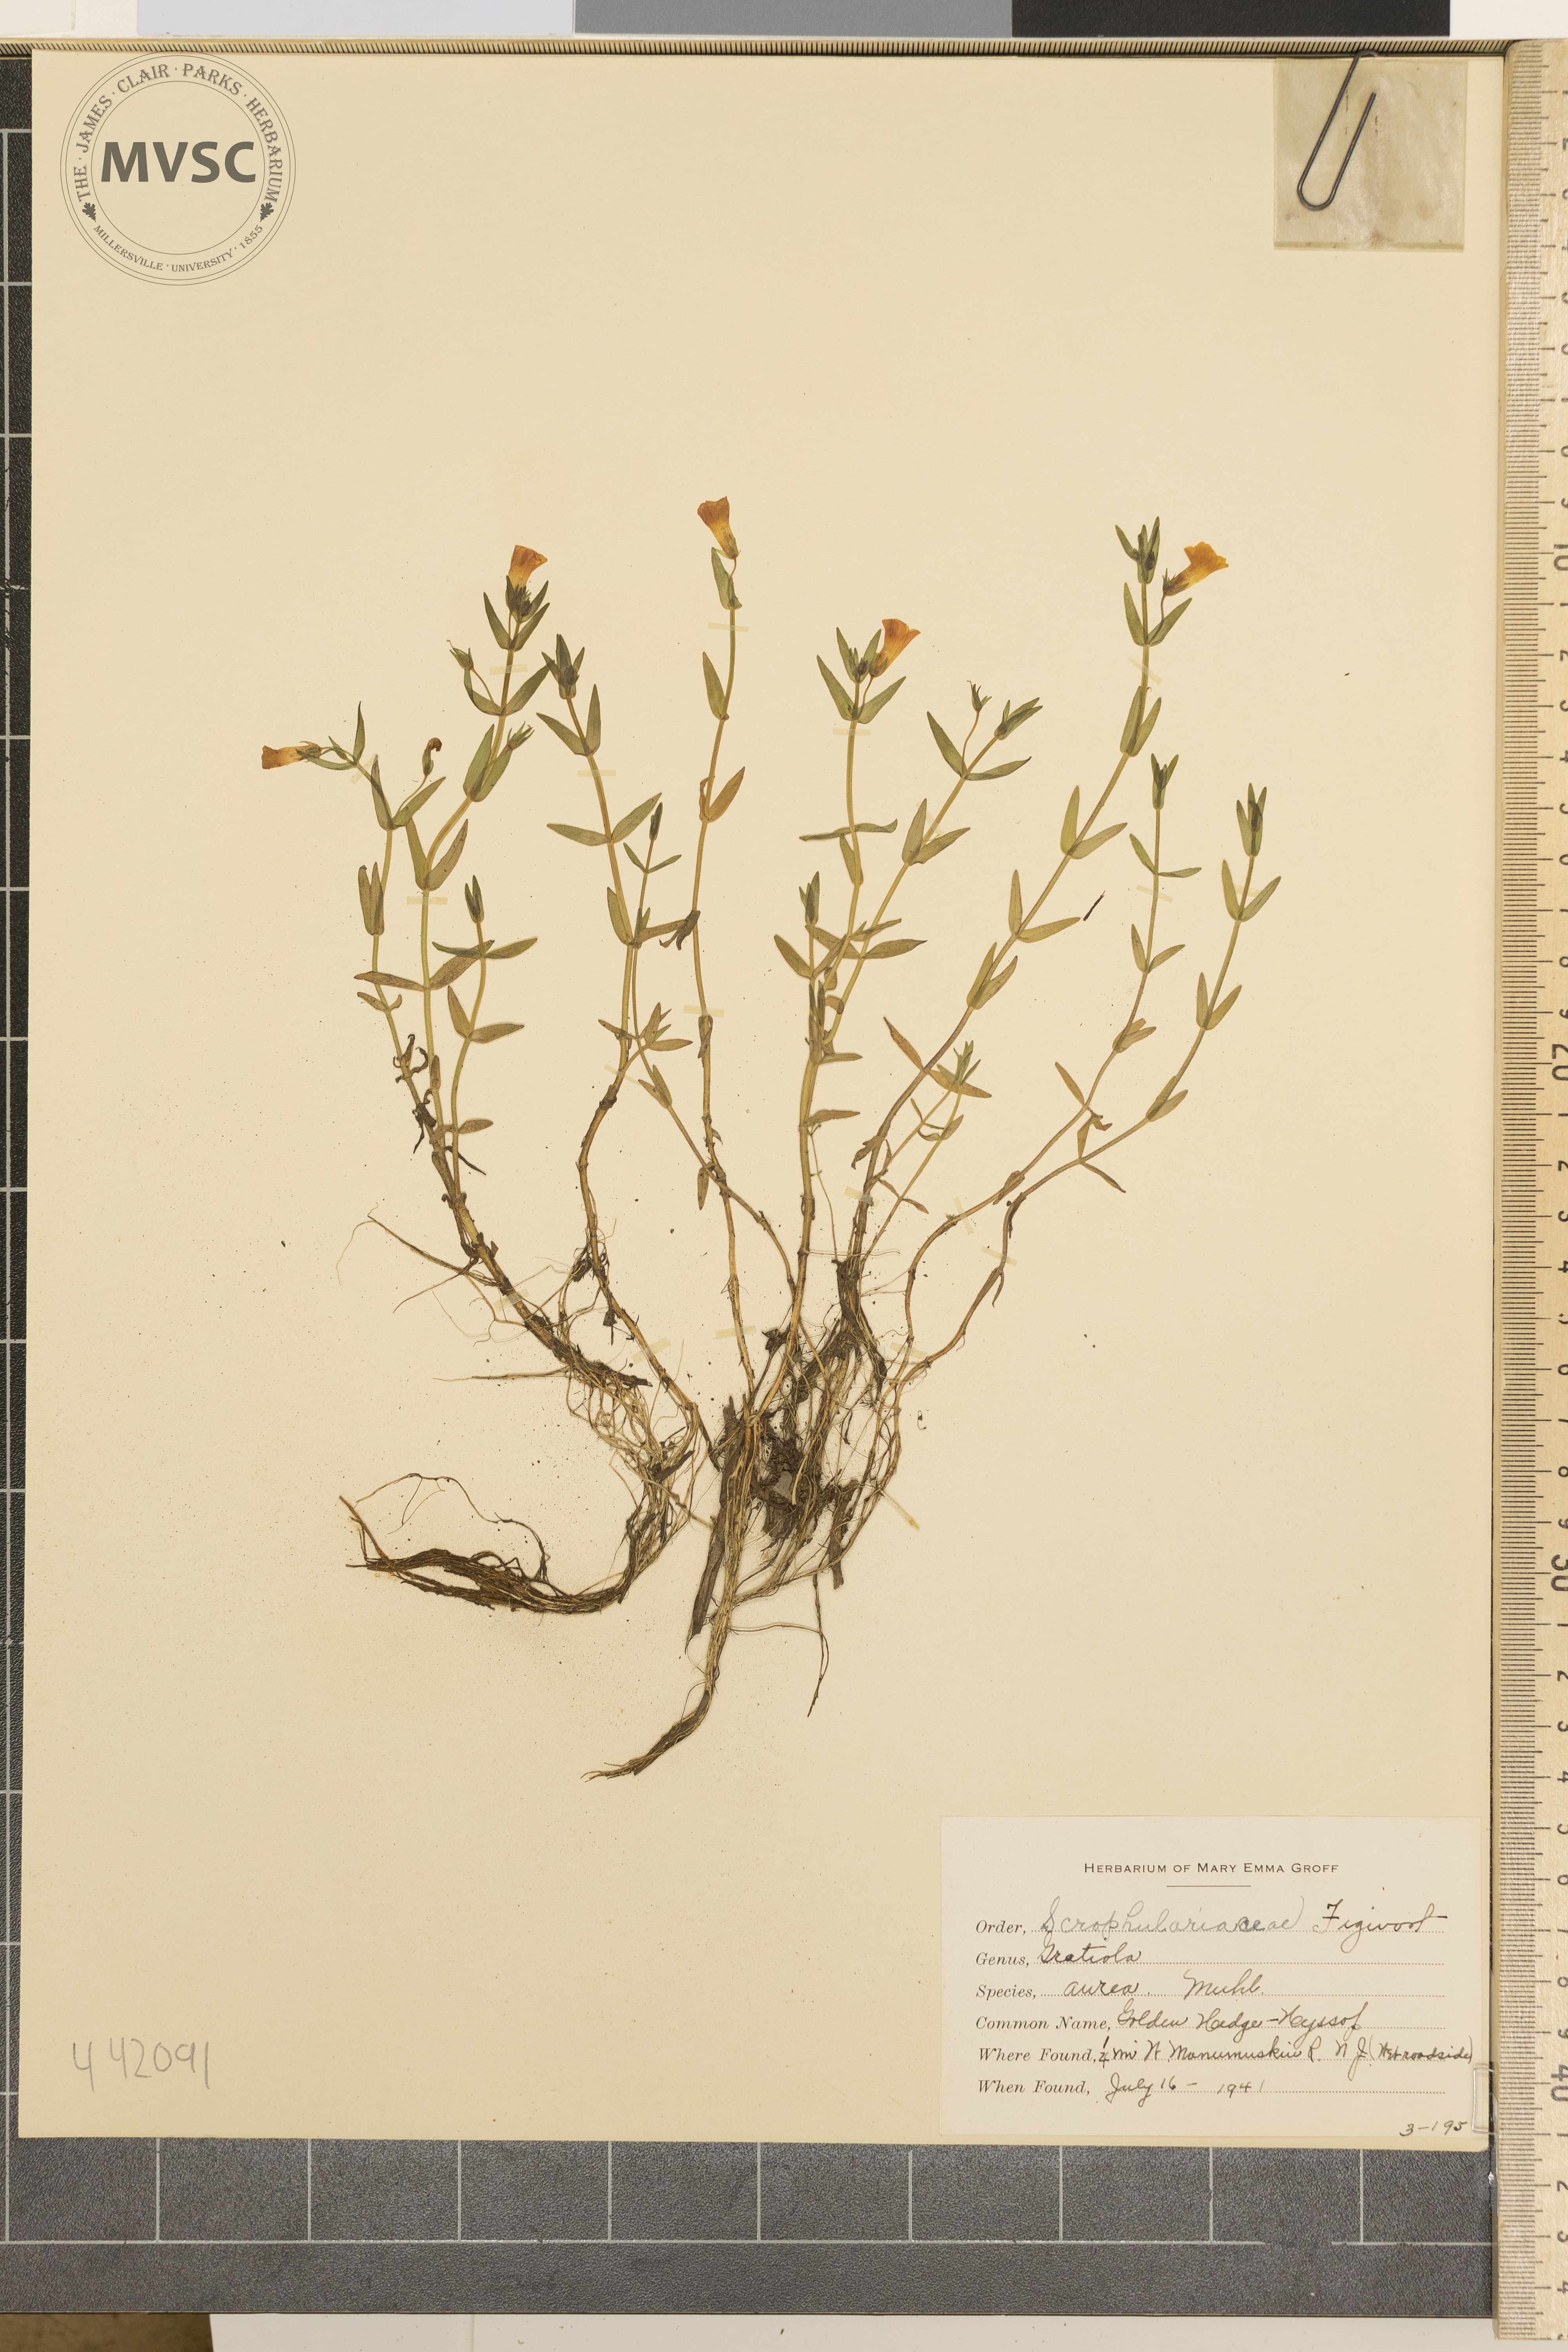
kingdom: Plantae
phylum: Tracheophyta
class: Magnoliopsida
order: Lamiales
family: Plantaginaceae
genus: Gratiola
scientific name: Gratiola lutea
